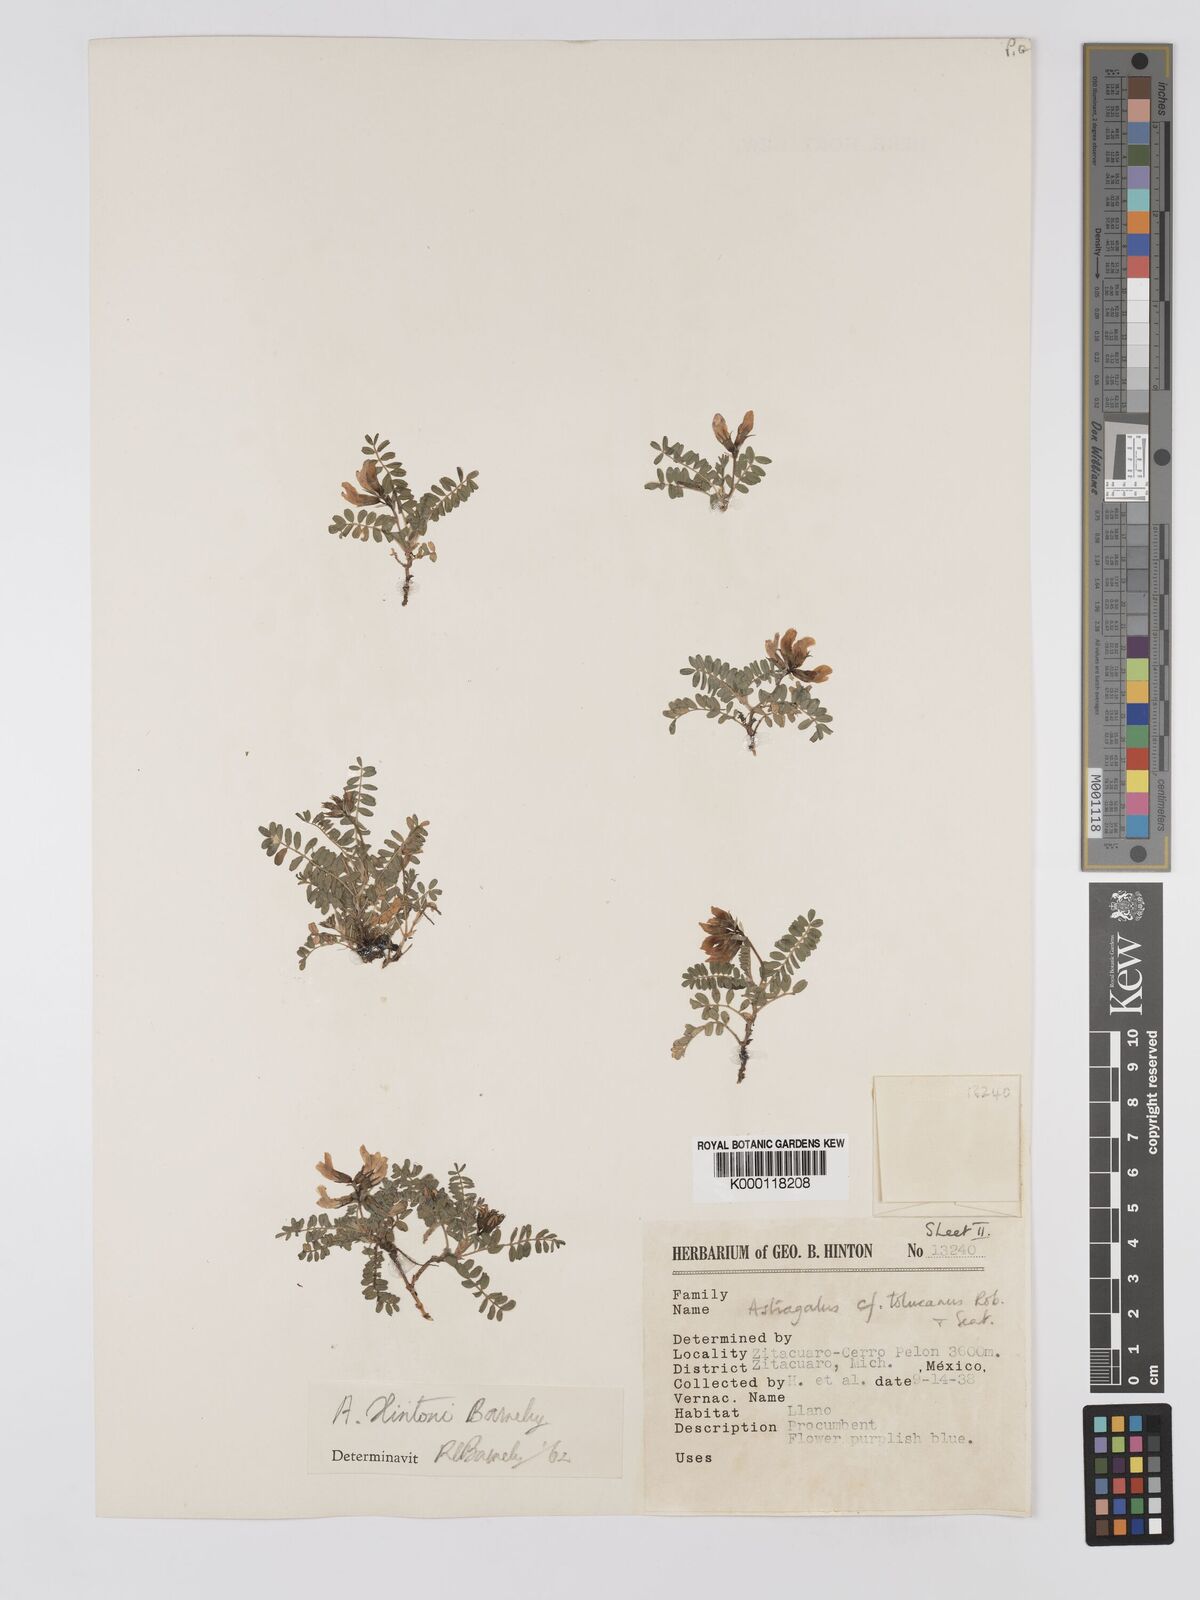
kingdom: Plantae
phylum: Tracheophyta
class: Magnoliopsida
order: Fabales
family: Fabaceae
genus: Astragalus
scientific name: Astragalus hintonii
